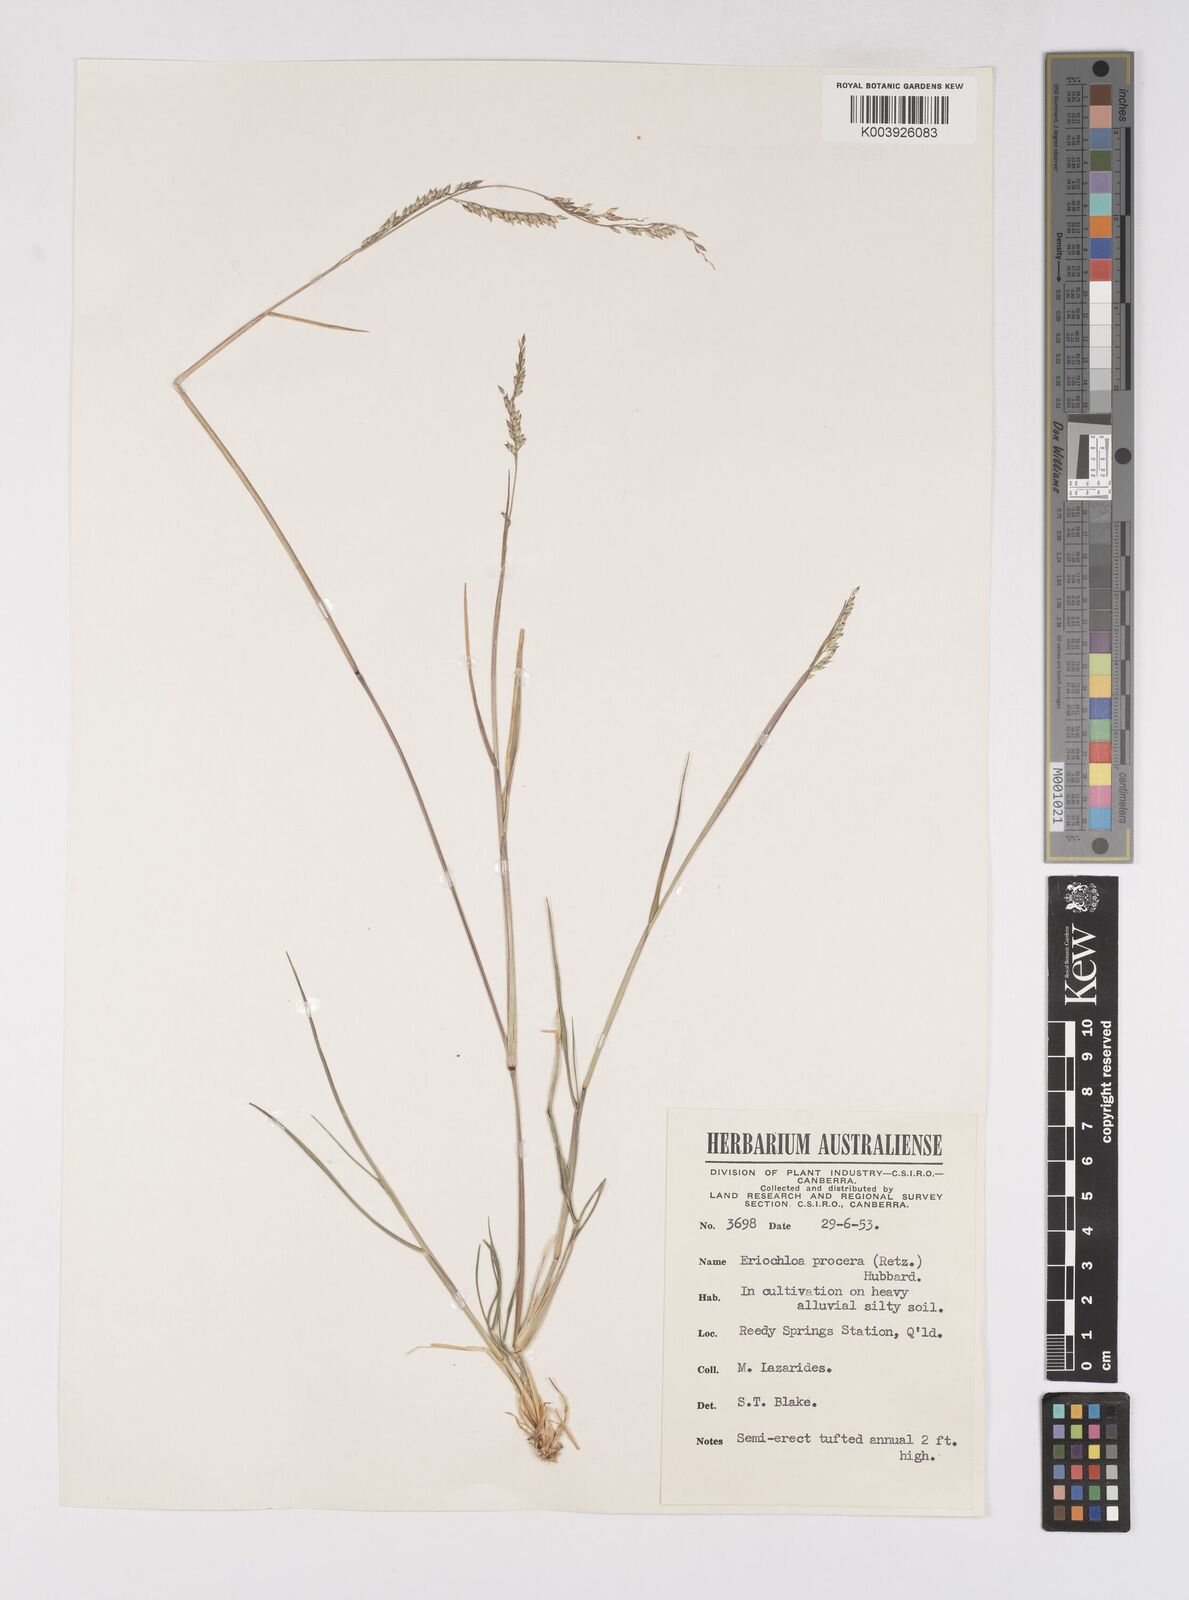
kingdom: Plantae
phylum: Tracheophyta
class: Liliopsida
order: Poales
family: Poaceae
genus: Eriochloa
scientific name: Eriochloa
